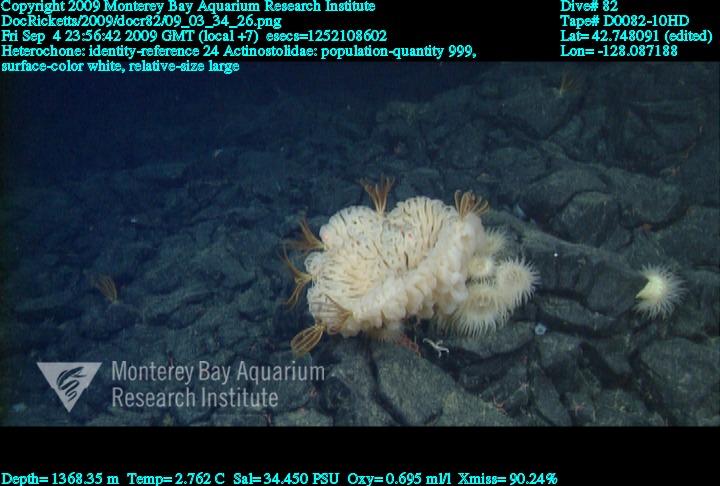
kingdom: Animalia
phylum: Porifera
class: Hexactinellida
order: Sceptrulophora
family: Aphrocallistidae
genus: Heterochone
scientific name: Heterochone
